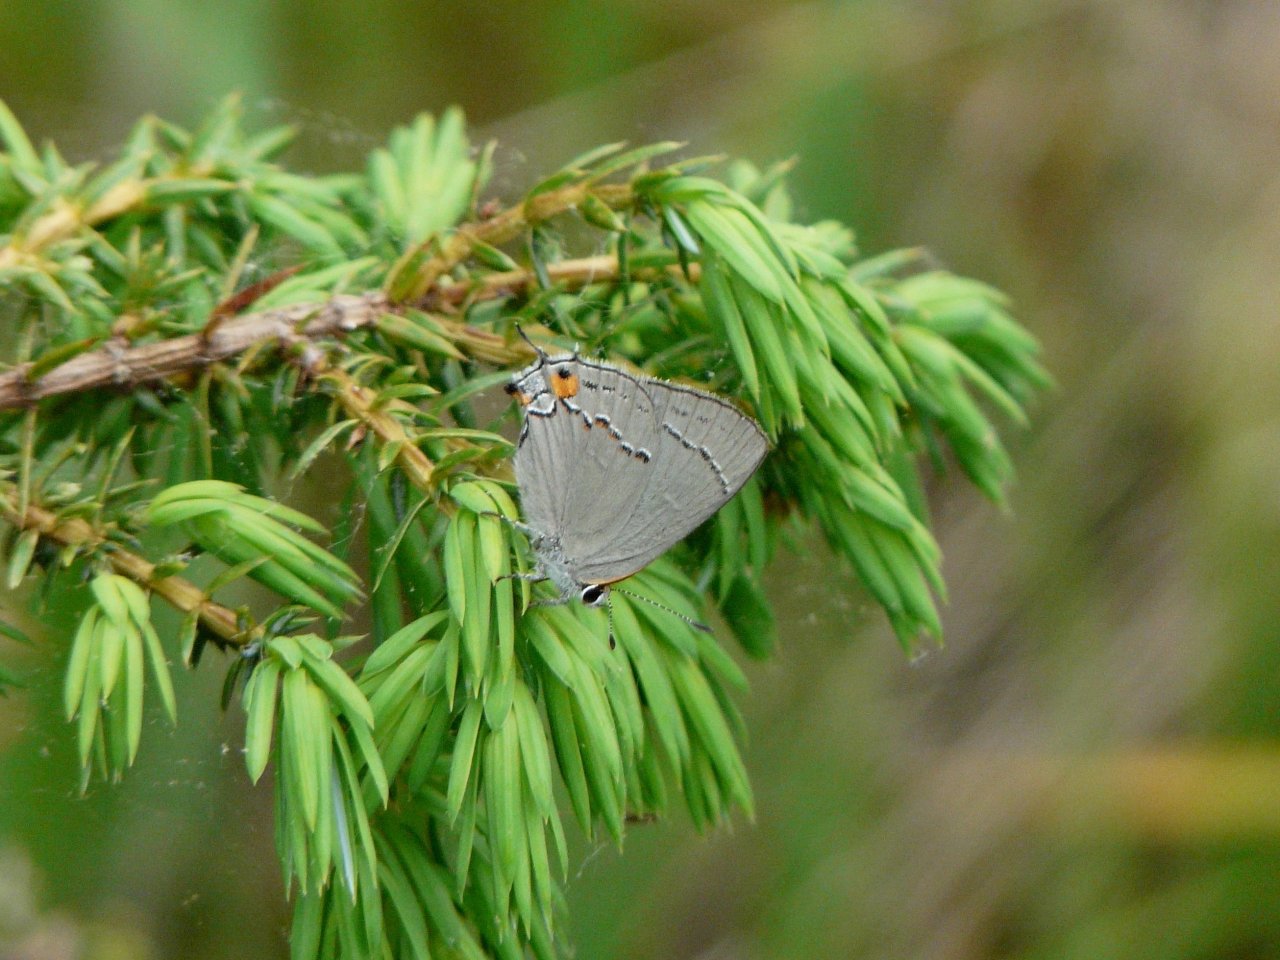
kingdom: Animalia
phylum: Arthropoda
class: Insecta
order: Lepidoptera
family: Lycaenidae
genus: Strymon
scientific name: Strymon melinus
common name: Gray Hairstreak
